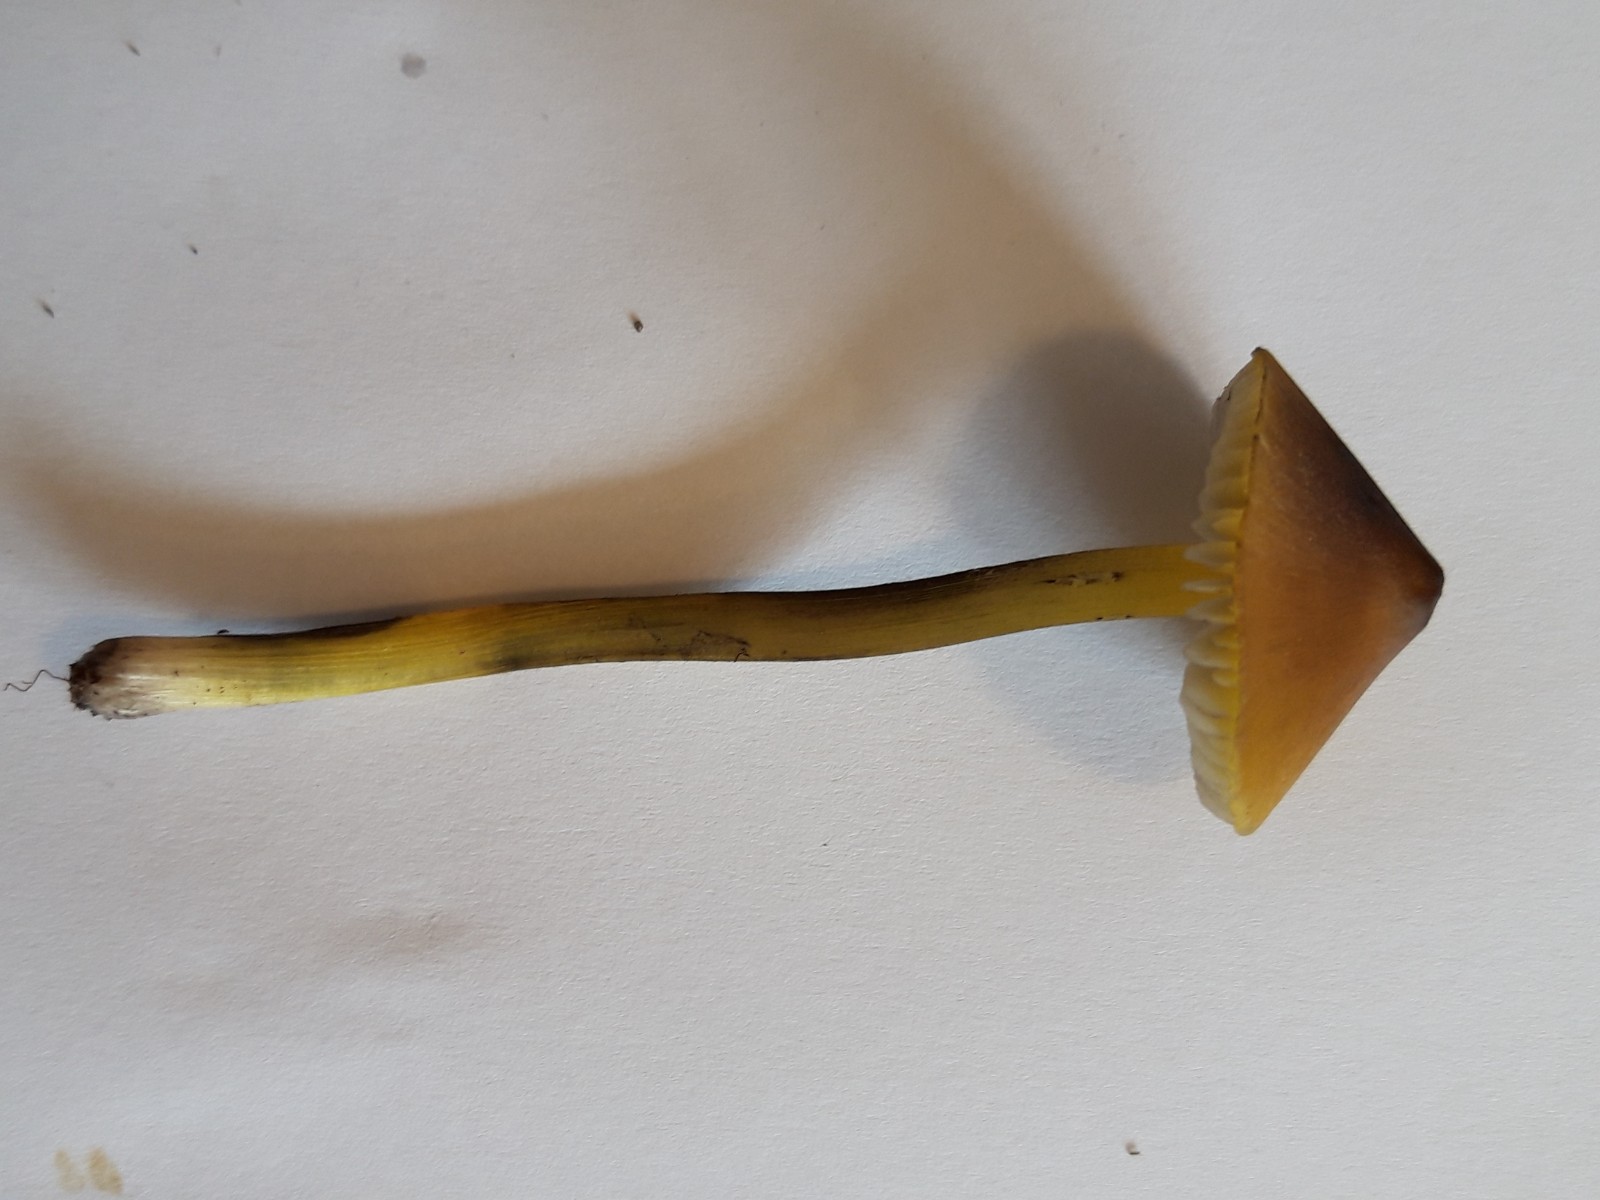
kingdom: Fungi
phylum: Basidiomycota
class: Agaricomycetes
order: Agaricales
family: Hygrophoraceae
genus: Hygrocybe
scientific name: Hygrocybe conica
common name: kegle-vokshat
